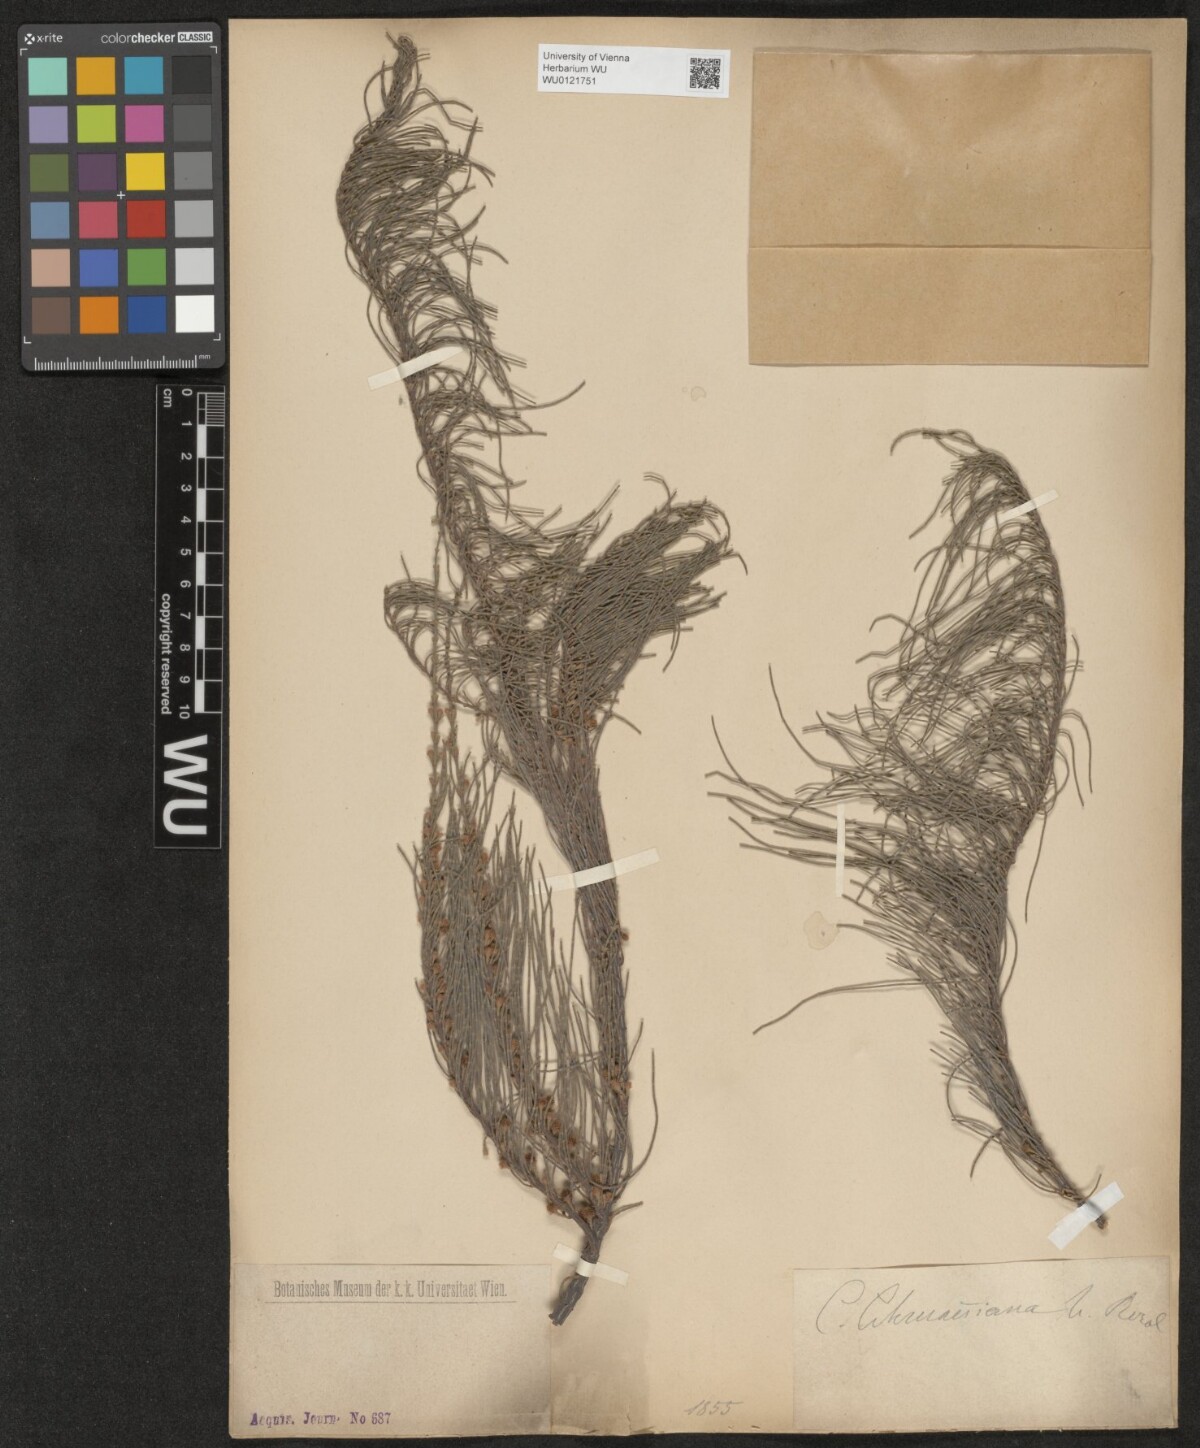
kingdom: Plantae
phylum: Tracheophyta
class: Magnoliopsida
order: Fagales
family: Casuarinaceae
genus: Casuarina
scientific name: Casuarina
